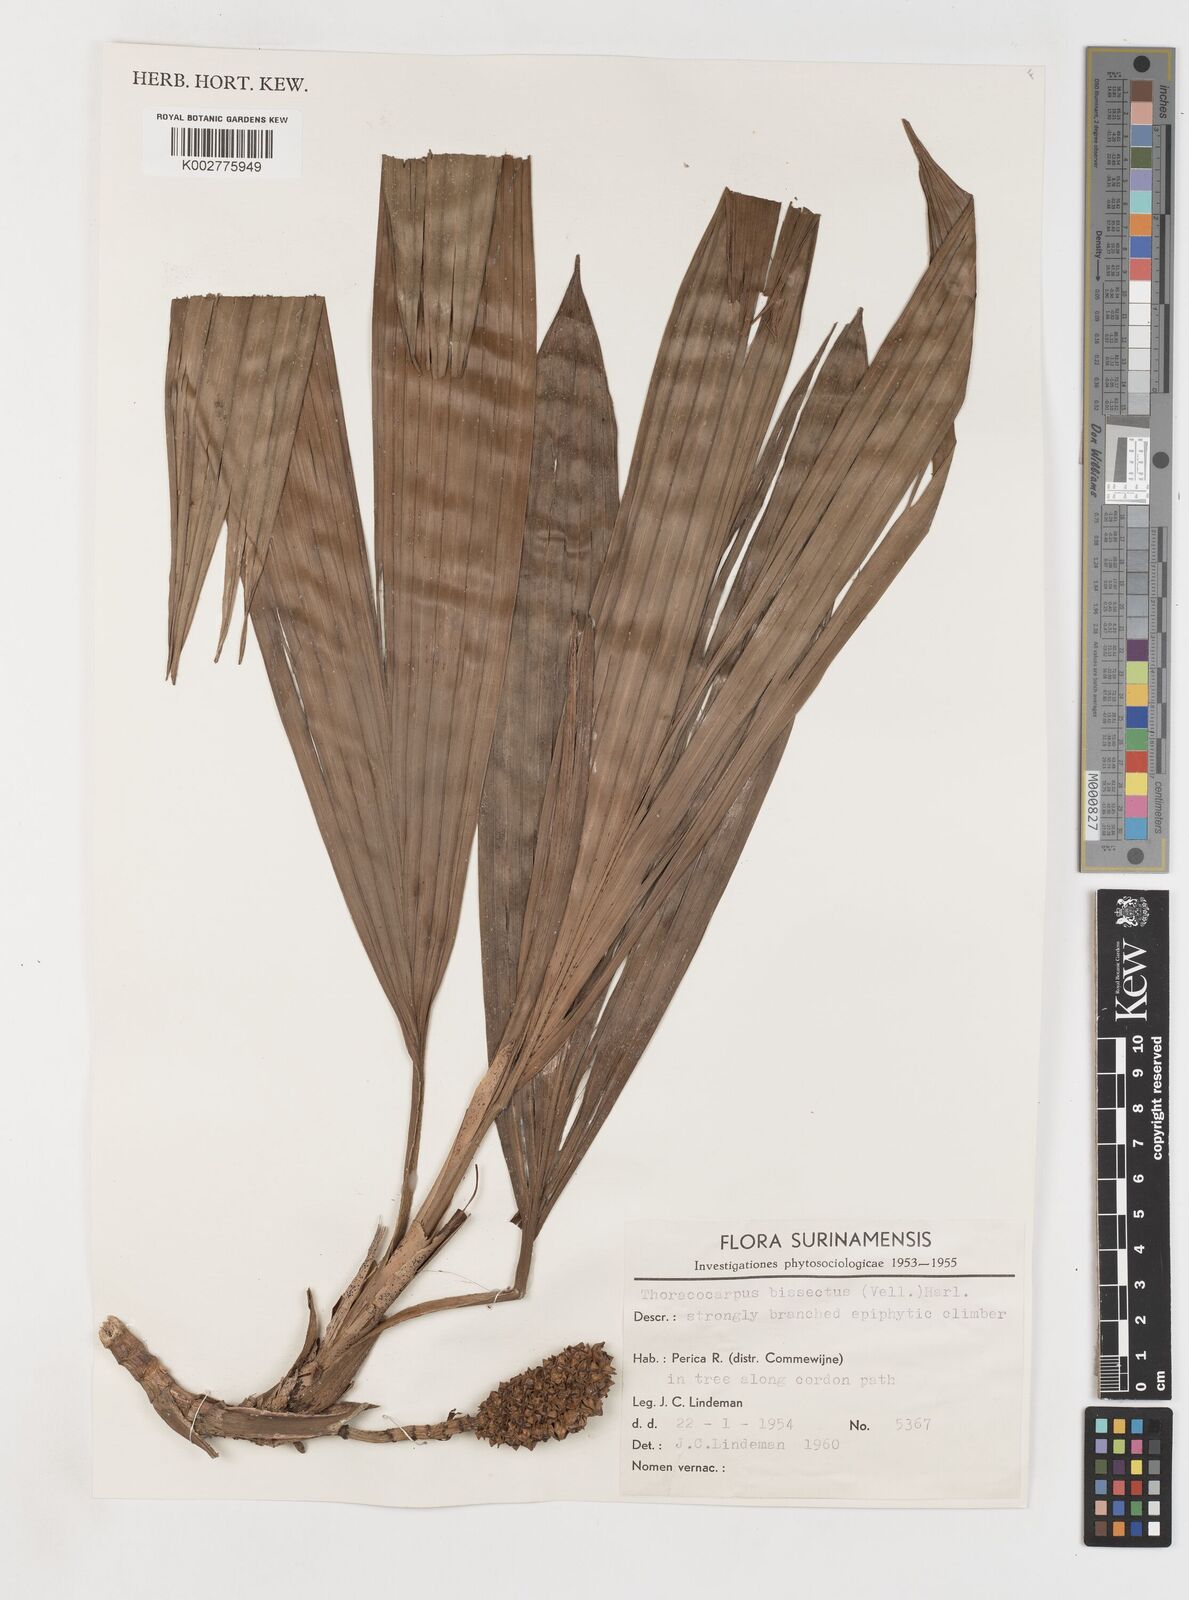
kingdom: Plantae
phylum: Tracheophyta
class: Liliopsida
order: Pandanales
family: Cyclanthaceae
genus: Thoracocarpus
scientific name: Thoracocarpus bissectus
